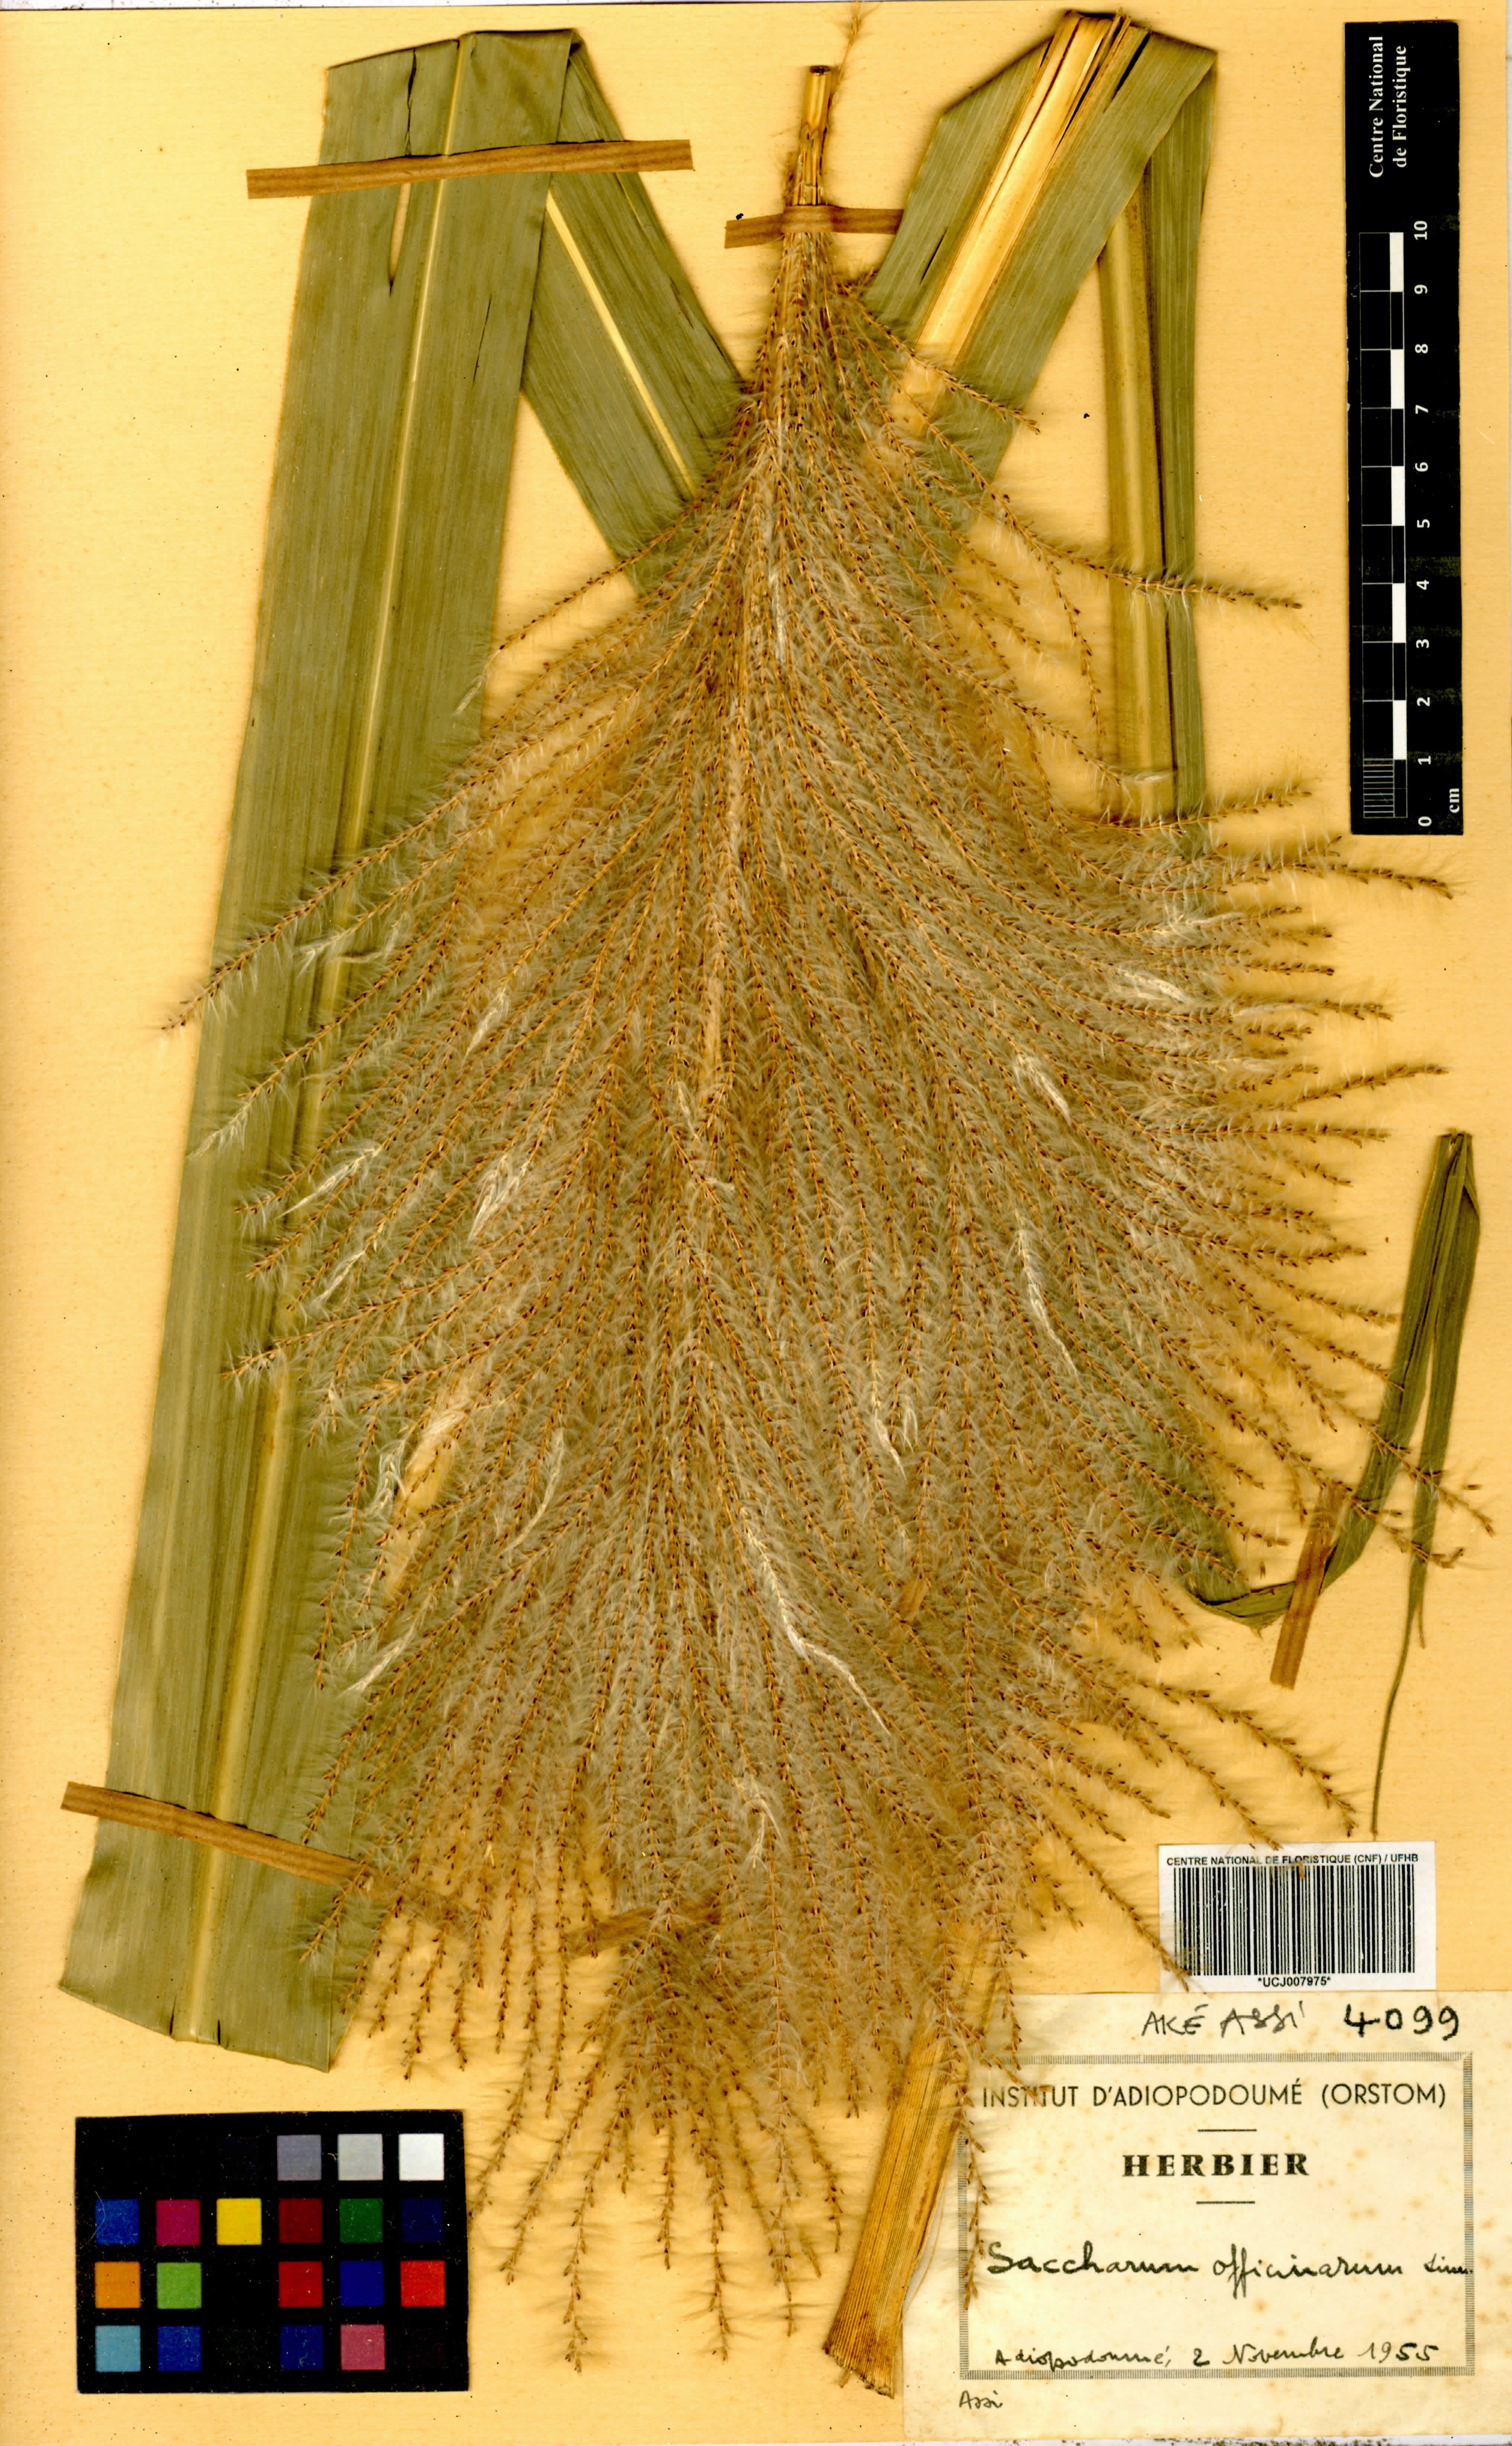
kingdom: Plantae
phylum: Tracheophyta
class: Liliopsida
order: Poales
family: Poaceae
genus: Saccharum
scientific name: Saccharum officinarum
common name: Sugarcane
